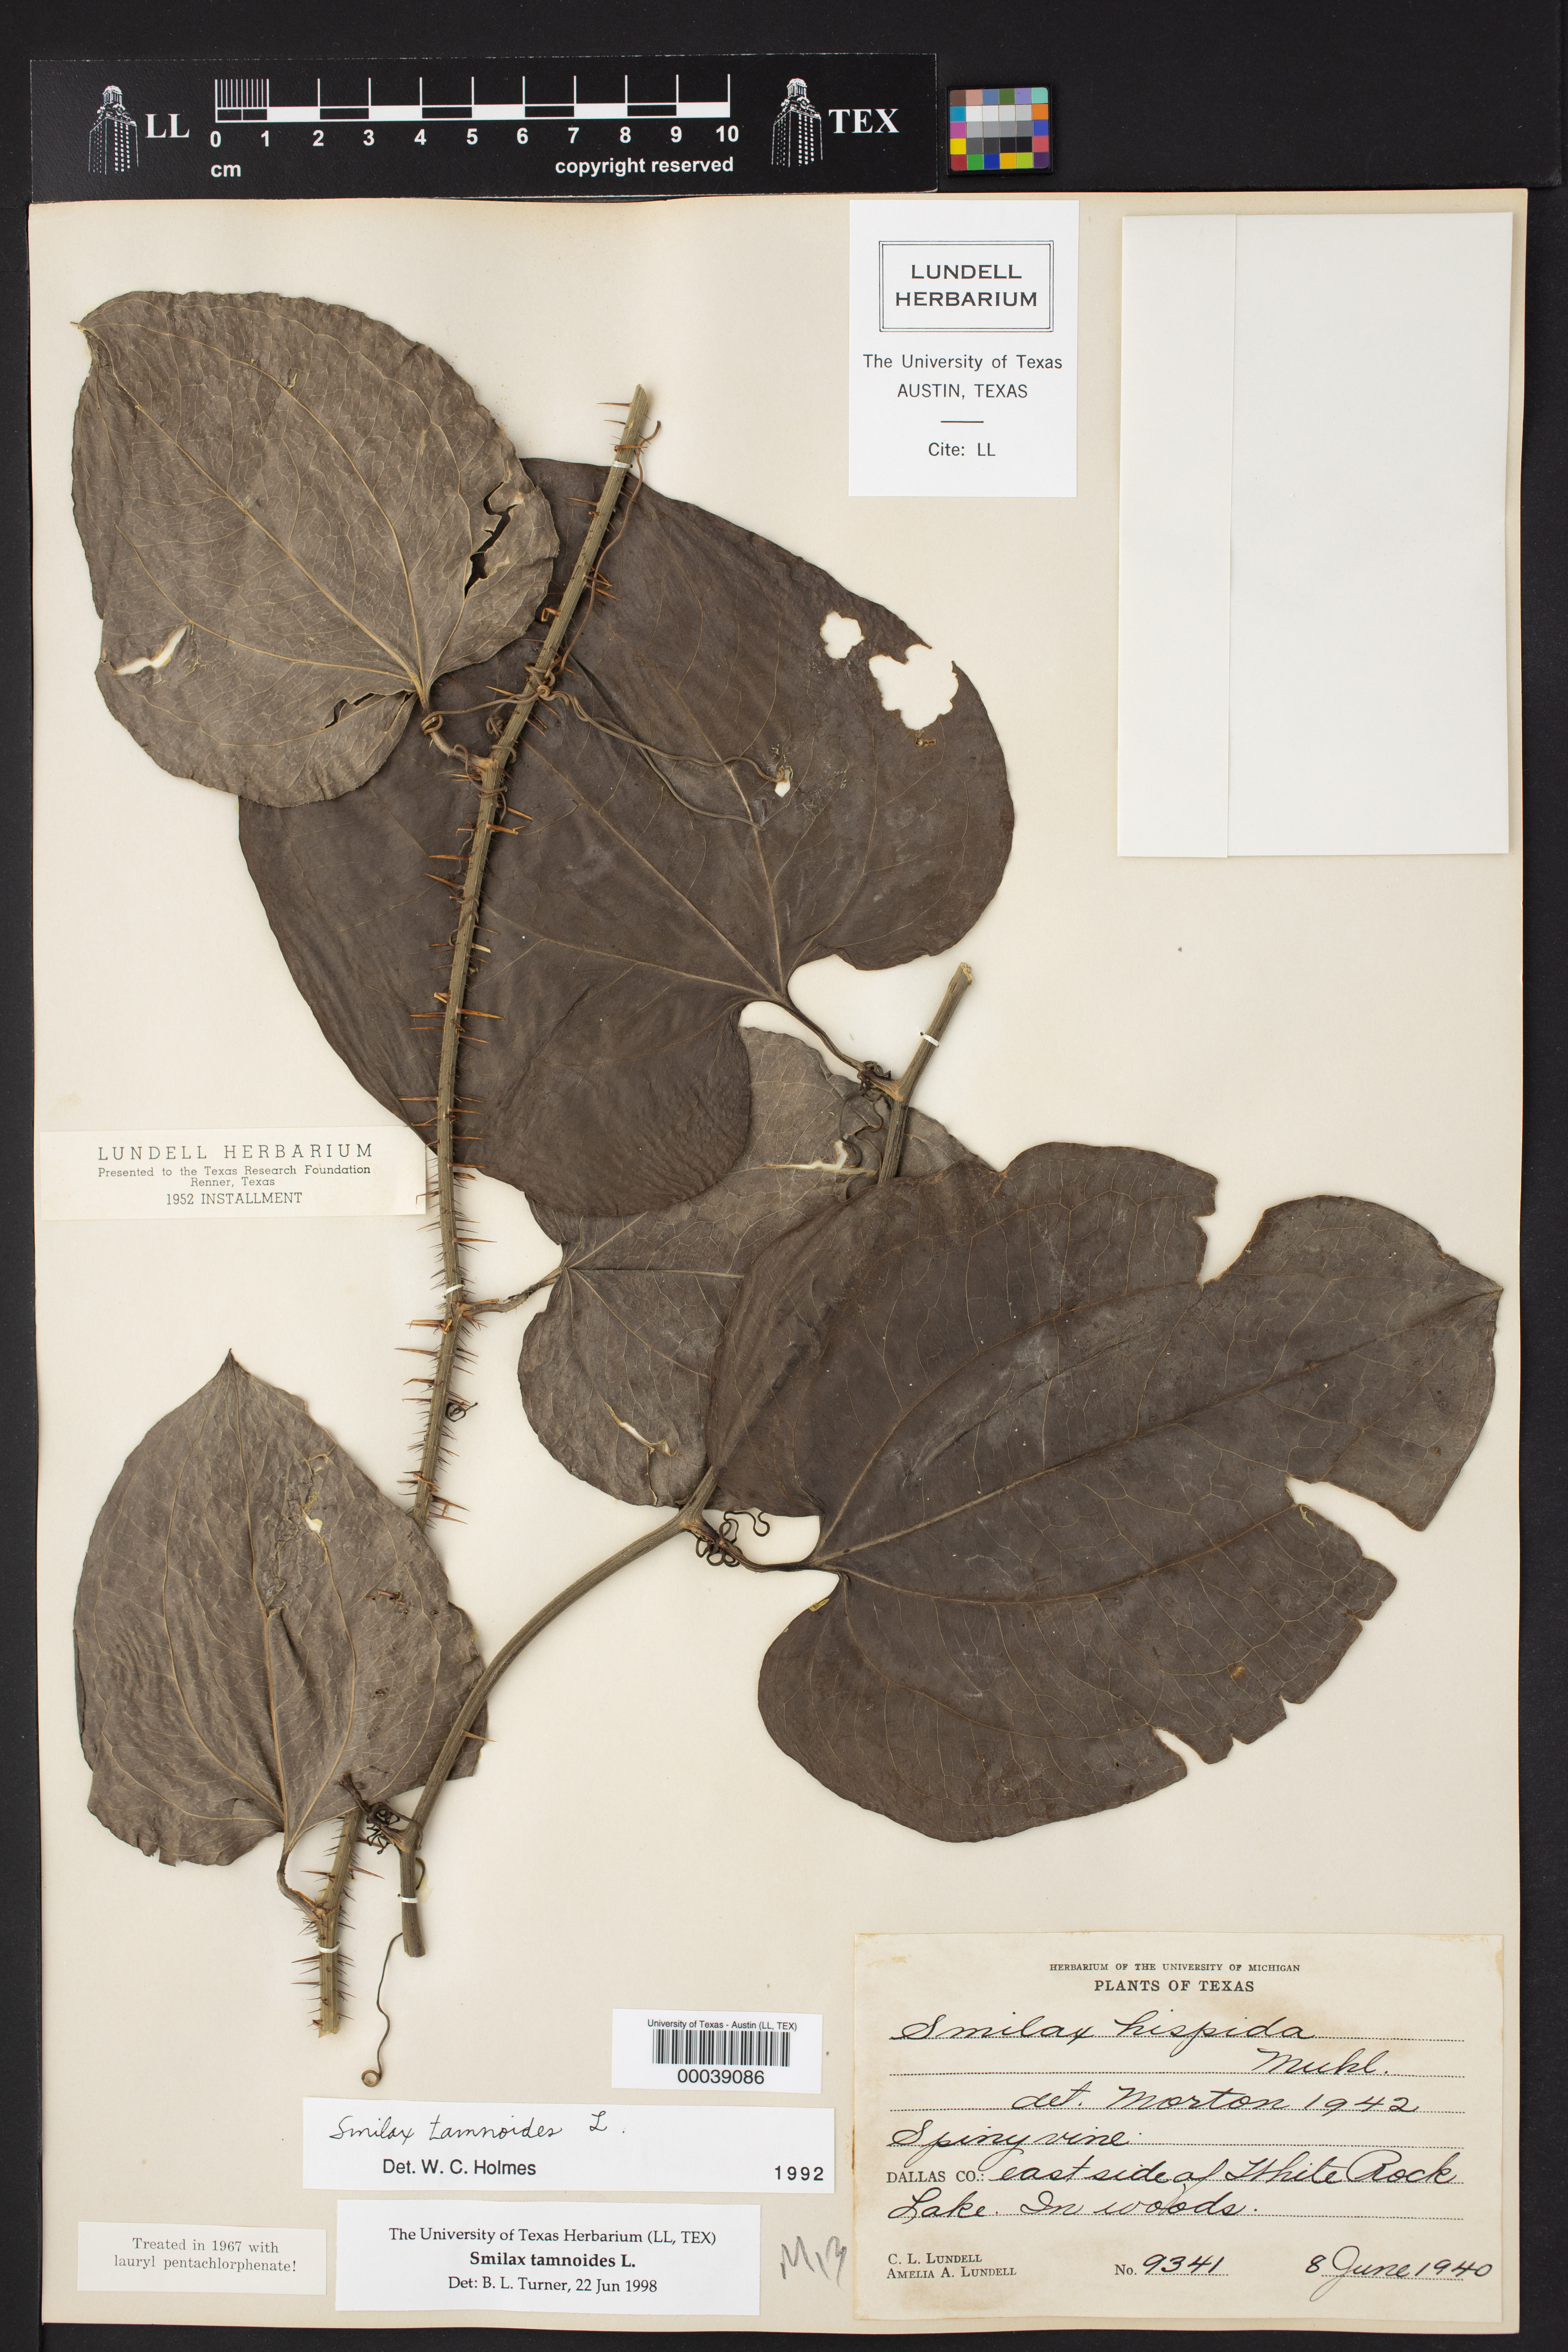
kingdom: Plantae
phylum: Tracheophyta
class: Liliopsida
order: Liliales
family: Smilacaceae
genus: Smilax
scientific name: Smilax tamnoides
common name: Hellfetter
